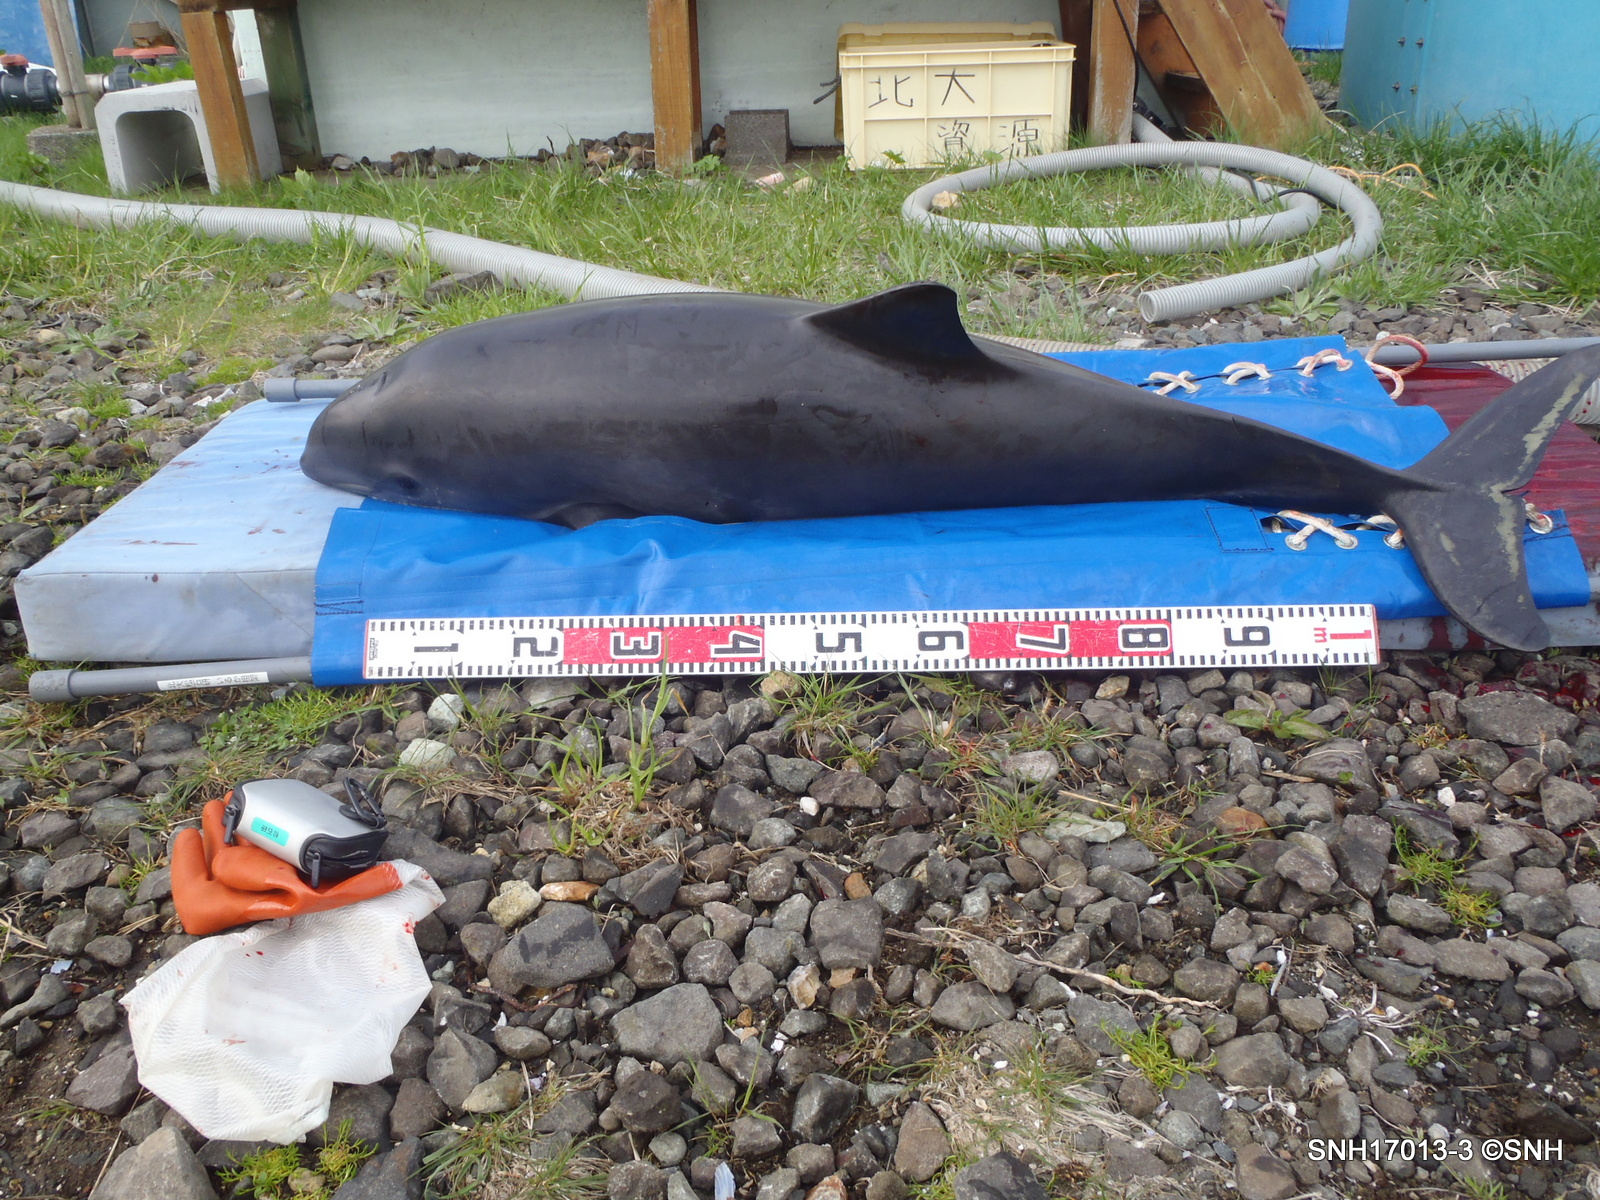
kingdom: Animalia
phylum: Chordata
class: Mammalia
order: Cetacea
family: Phocoenidae
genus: Phocoena
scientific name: Phocoena phocoena
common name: Harbour porpoise
